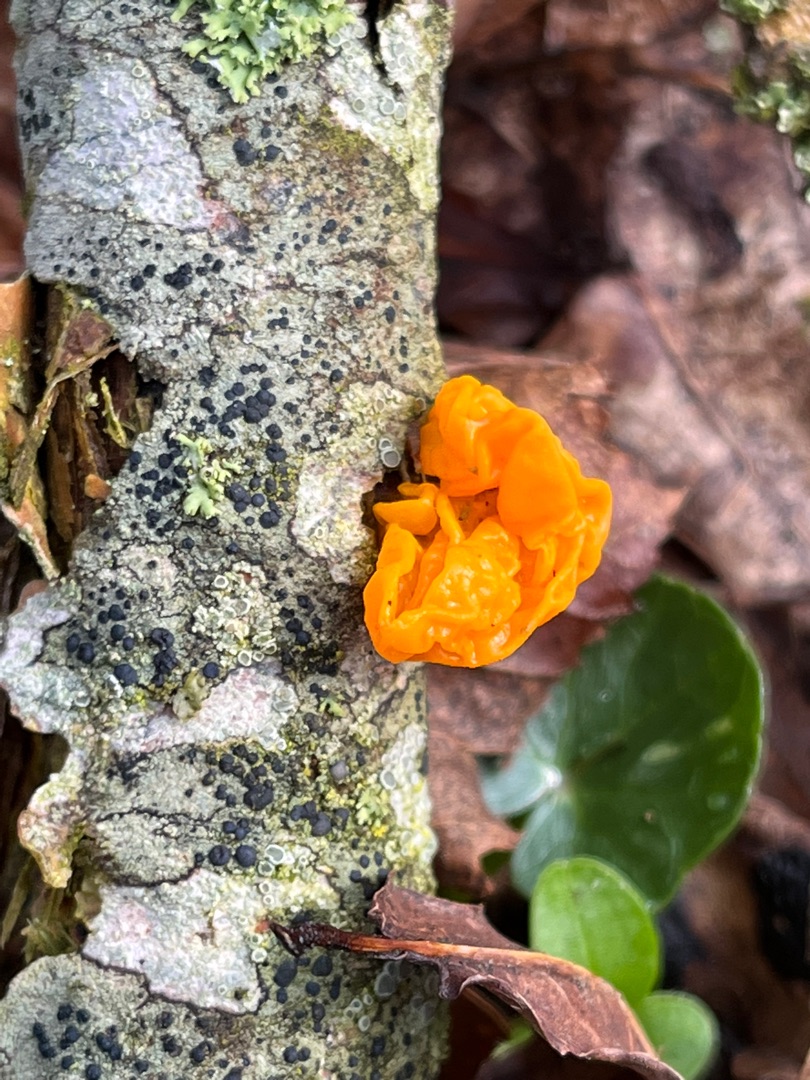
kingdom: Fungi
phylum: Basidiomycota
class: Tremellomycetes
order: Tremellales
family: Tremellaceae
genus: Tremella
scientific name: Tremella mesenterica
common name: Gul bævresvamp
